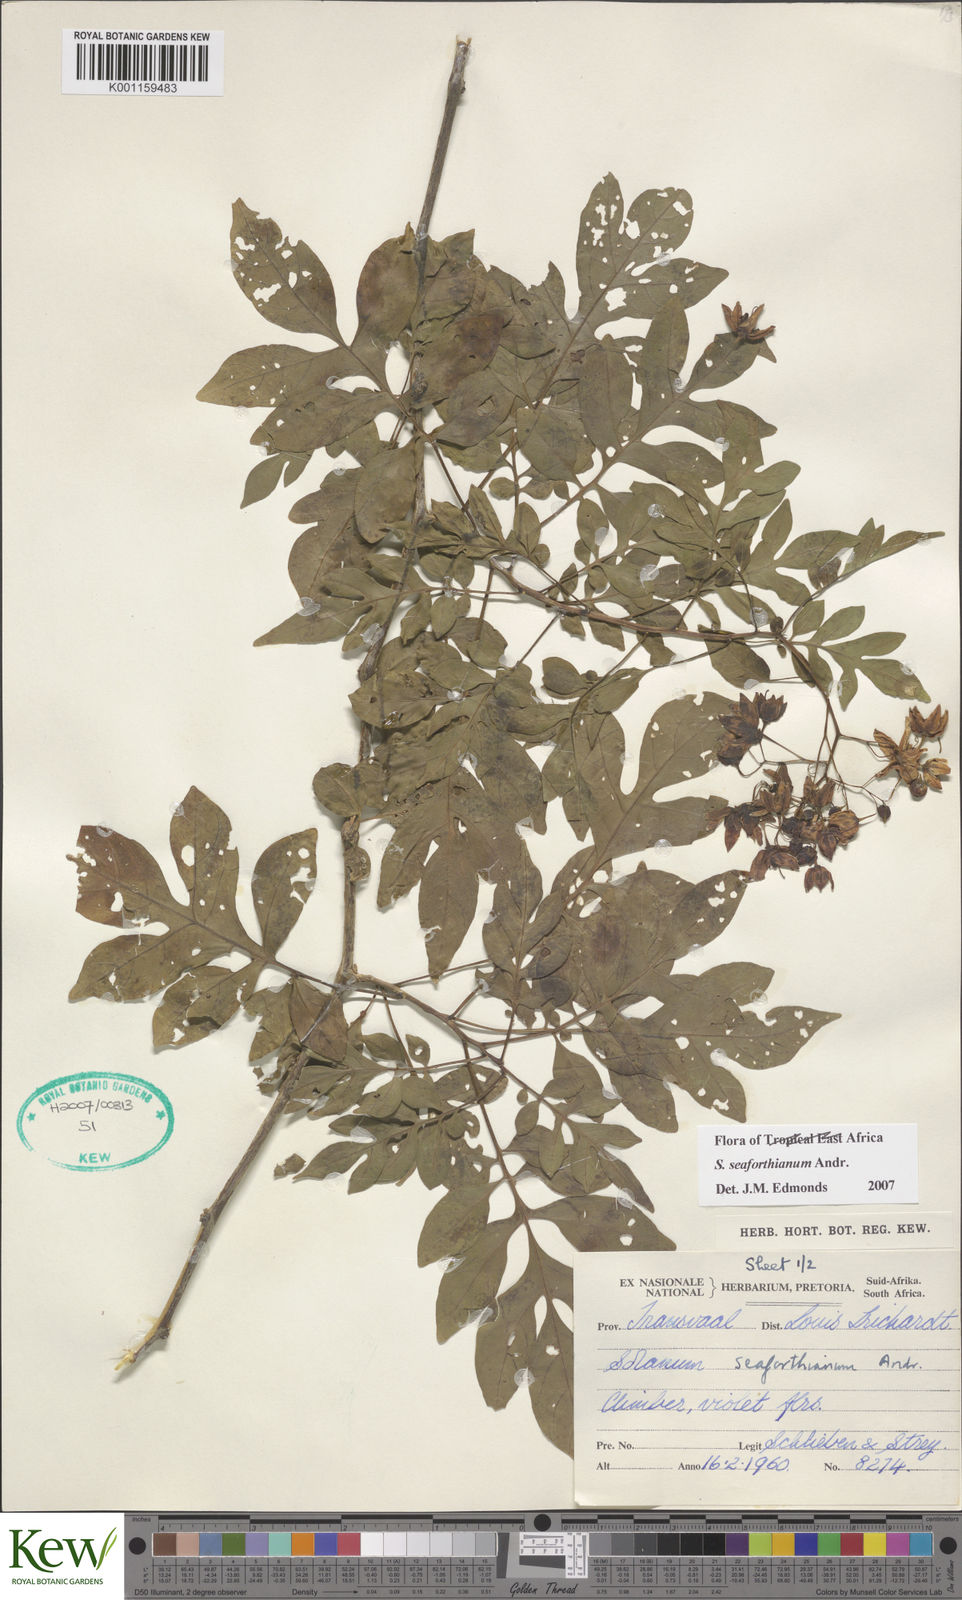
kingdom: Plantae
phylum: Tracheophyta
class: Magnoliopsida
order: Solanales
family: Solanaceae
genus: Solanum
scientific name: Solanum seaforthianum
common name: Brazilian nightshade
